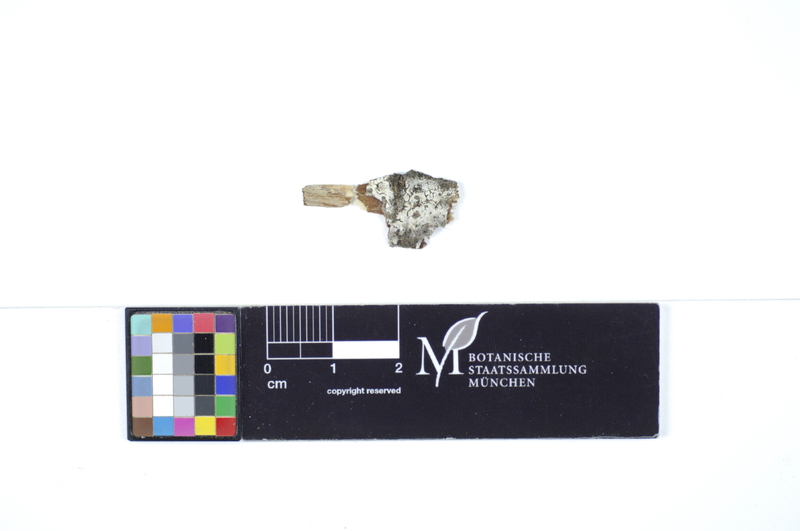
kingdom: Plantae
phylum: Tracheophyta
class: Magnoliopsida
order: Malpighiales
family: Salicaceae
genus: Salix
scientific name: Salix cinerea
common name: Common sallow
